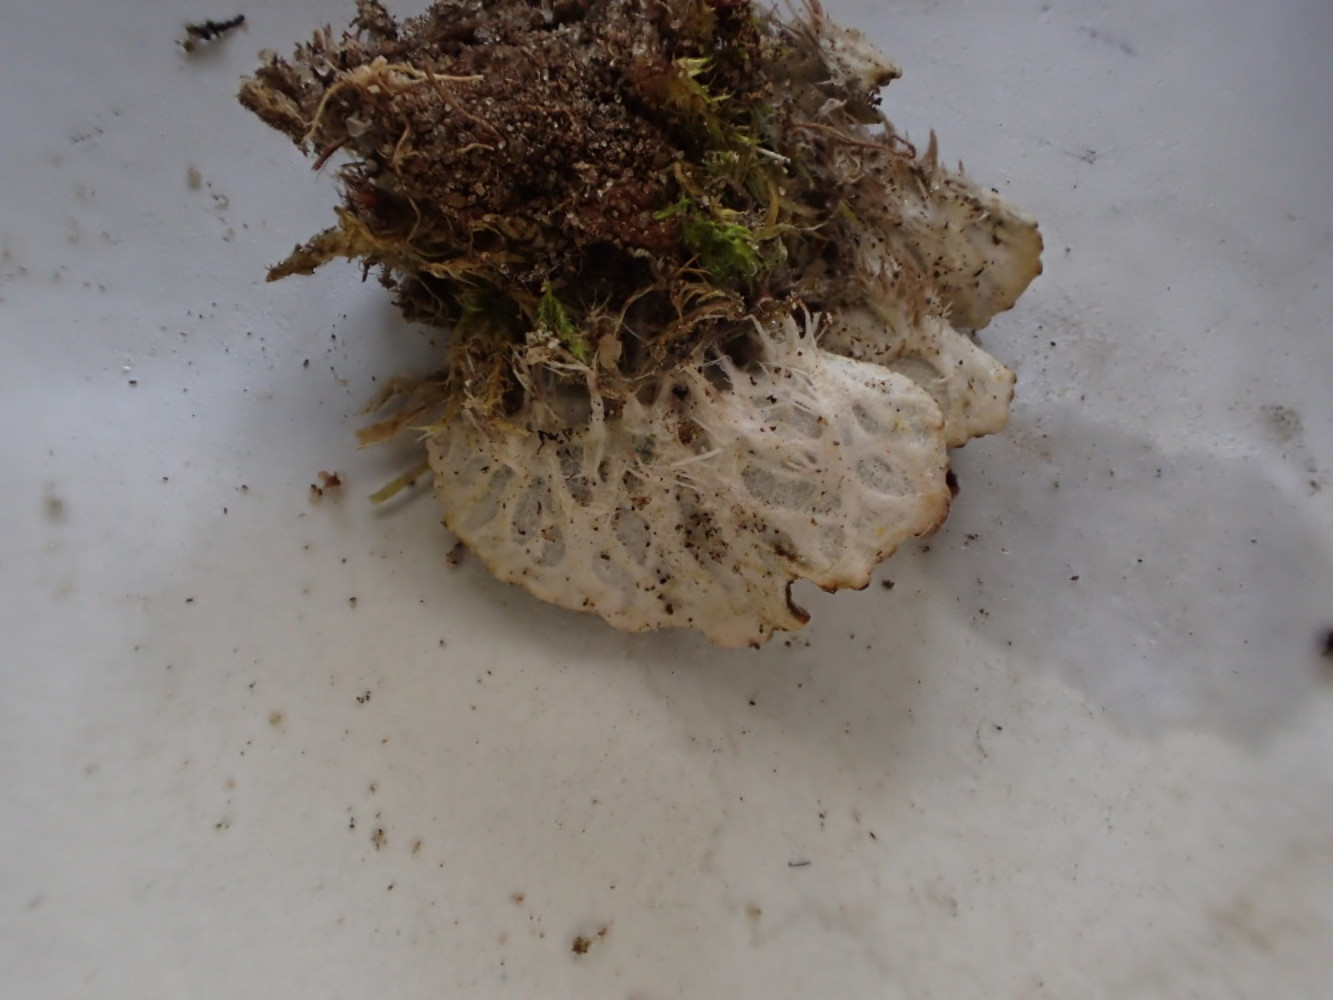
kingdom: Fungi
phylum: Ascomycota
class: Lecanoromycetes
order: Peltigerales
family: Peltigeraceae
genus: Peltigera
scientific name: Peltigera didactyla
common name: liden skjoldlav
